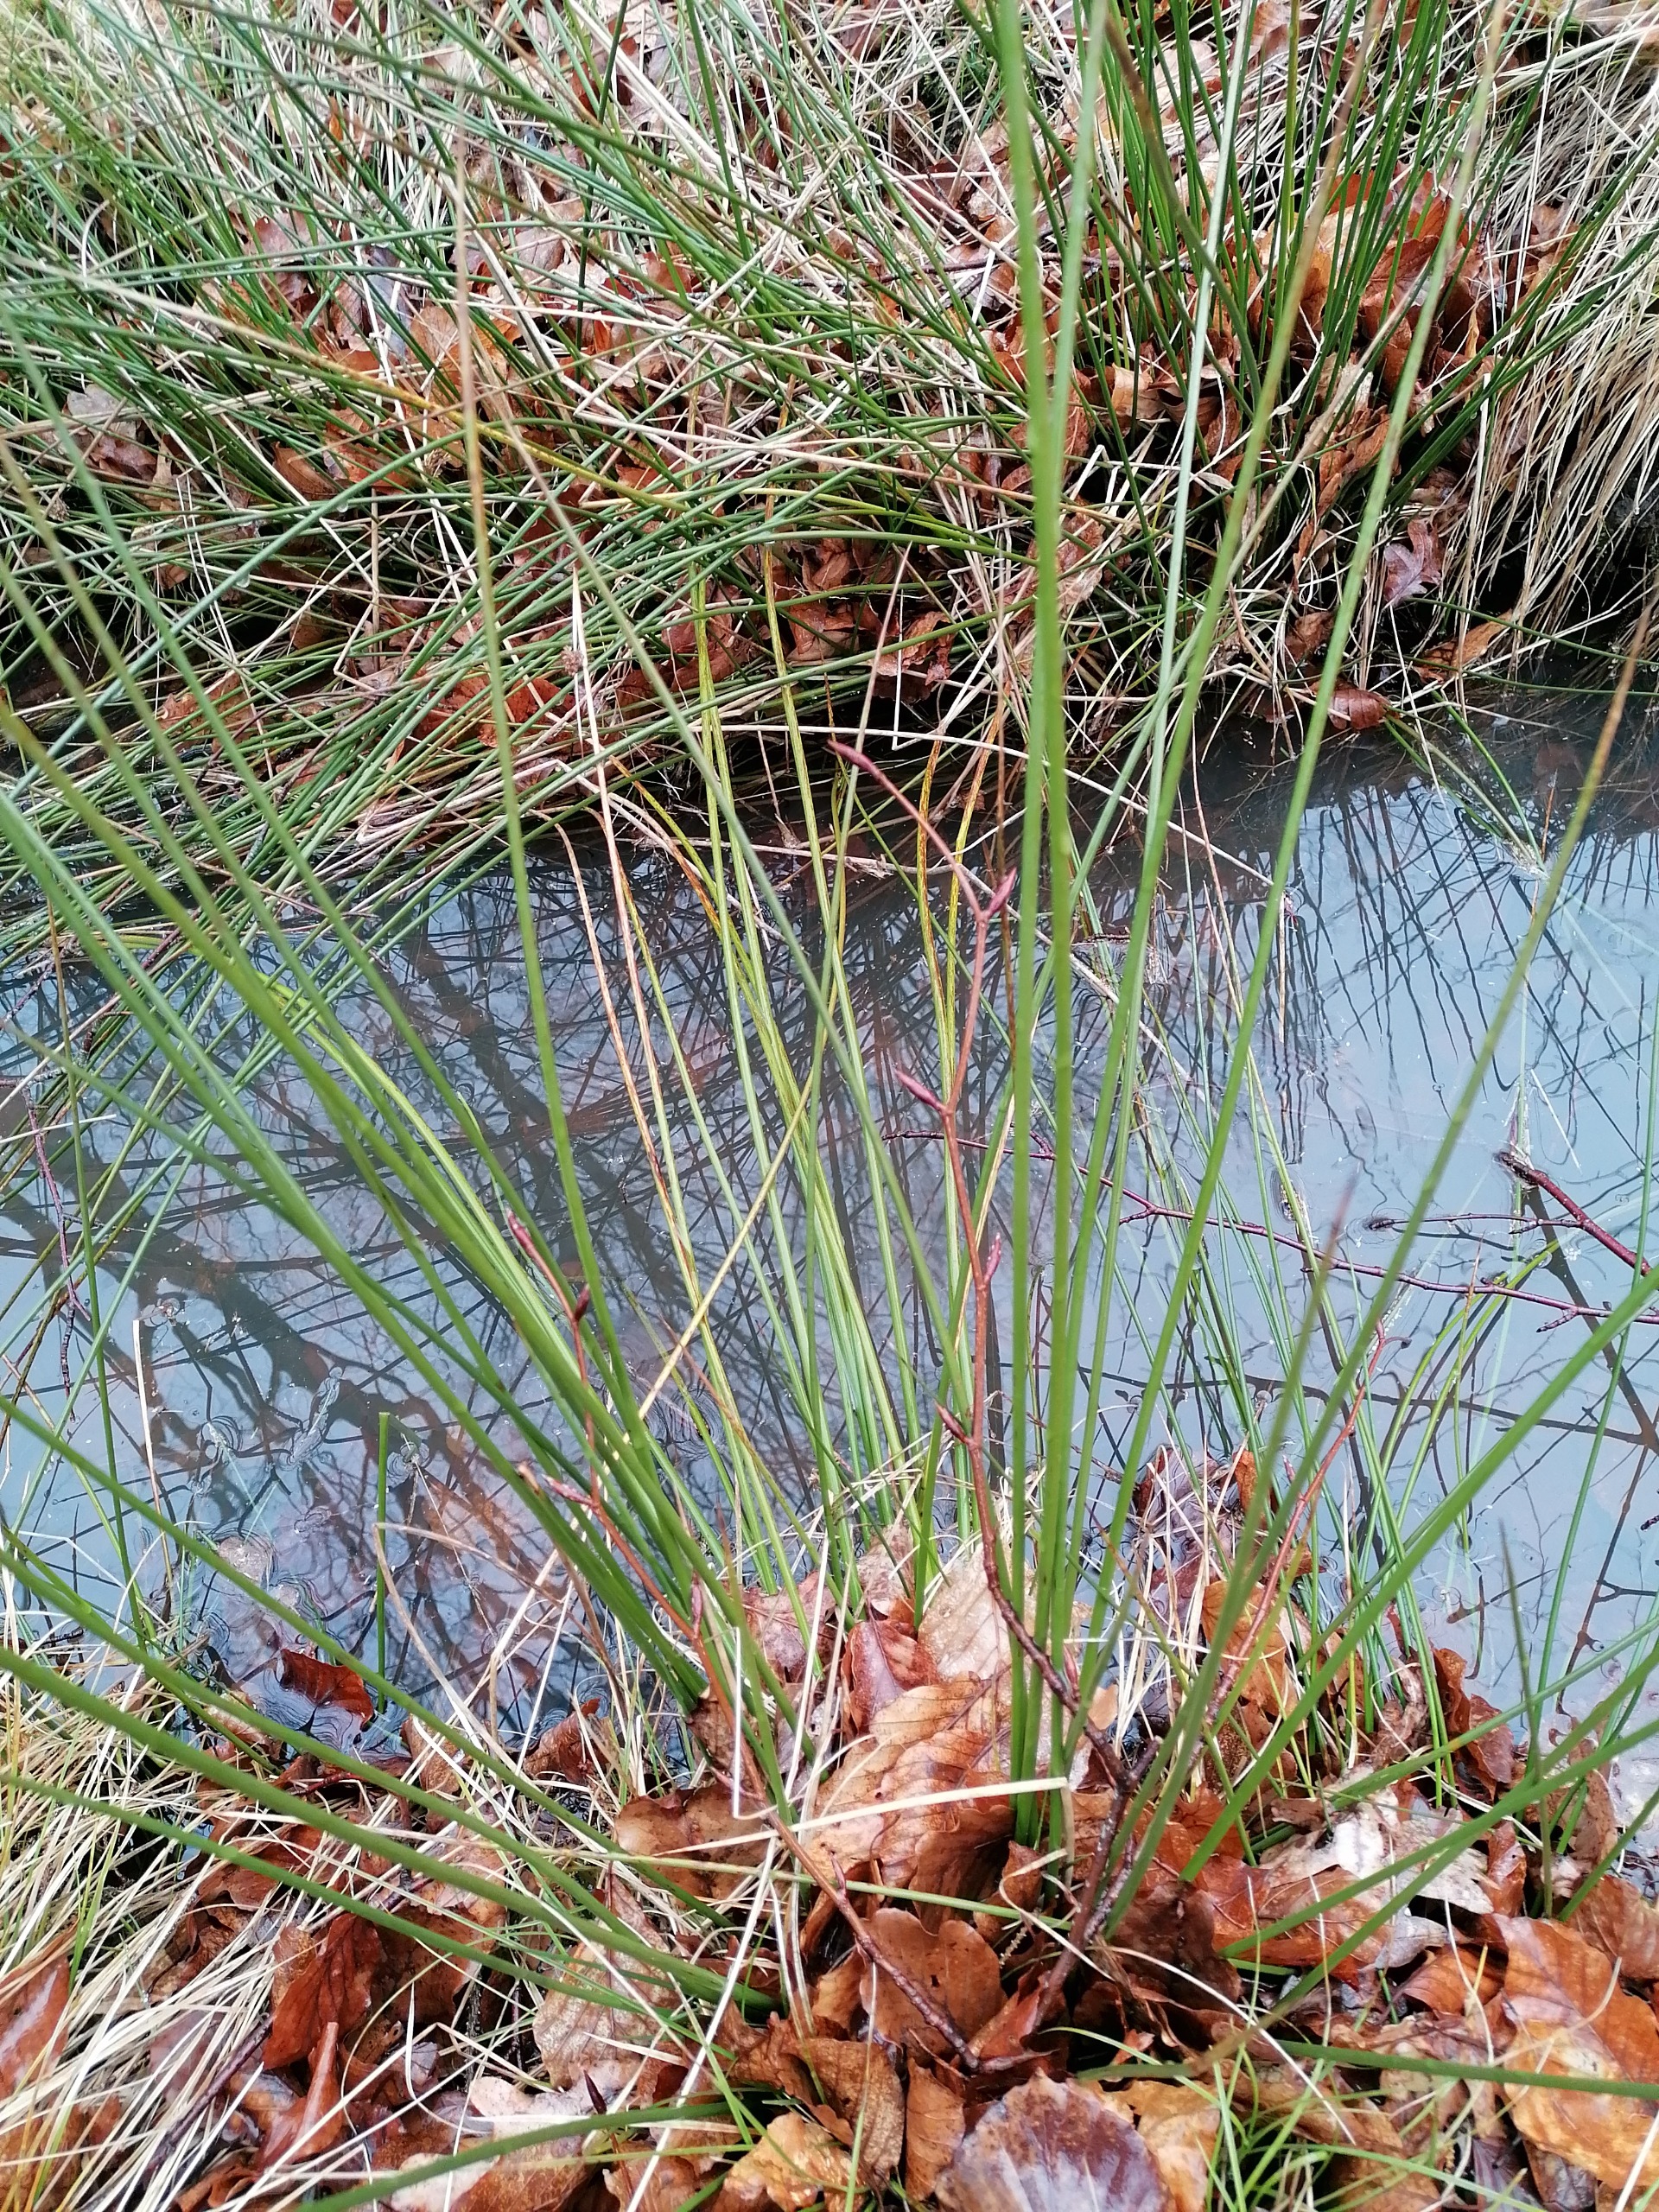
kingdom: Plantae
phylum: Tracheophyta
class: Liliopsida
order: Poales
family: Juncaceae
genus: Juncus
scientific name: Juncus effusus
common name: Lyse-siv
